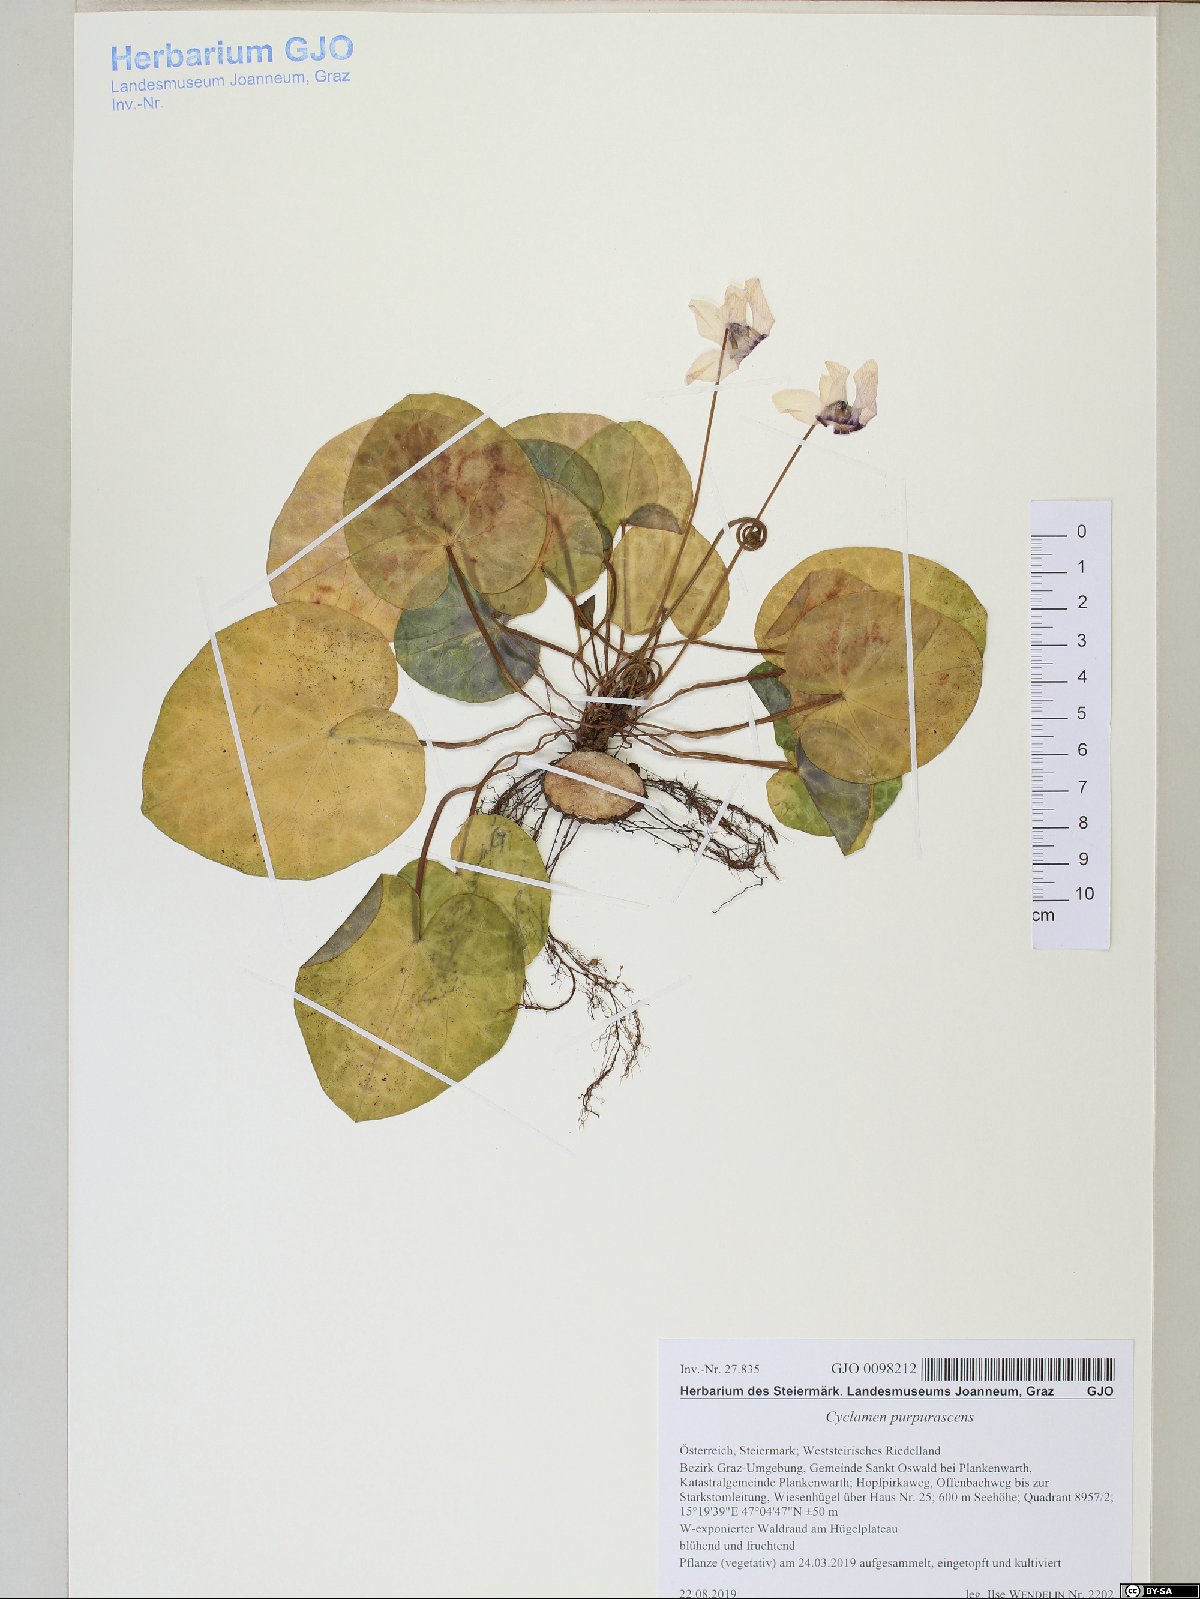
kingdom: Plantae
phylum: Tracheophyta
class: Magnoliopsida
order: Ericales
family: Primulaceae
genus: Cyclamen
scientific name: Cyclamen purpurascens
